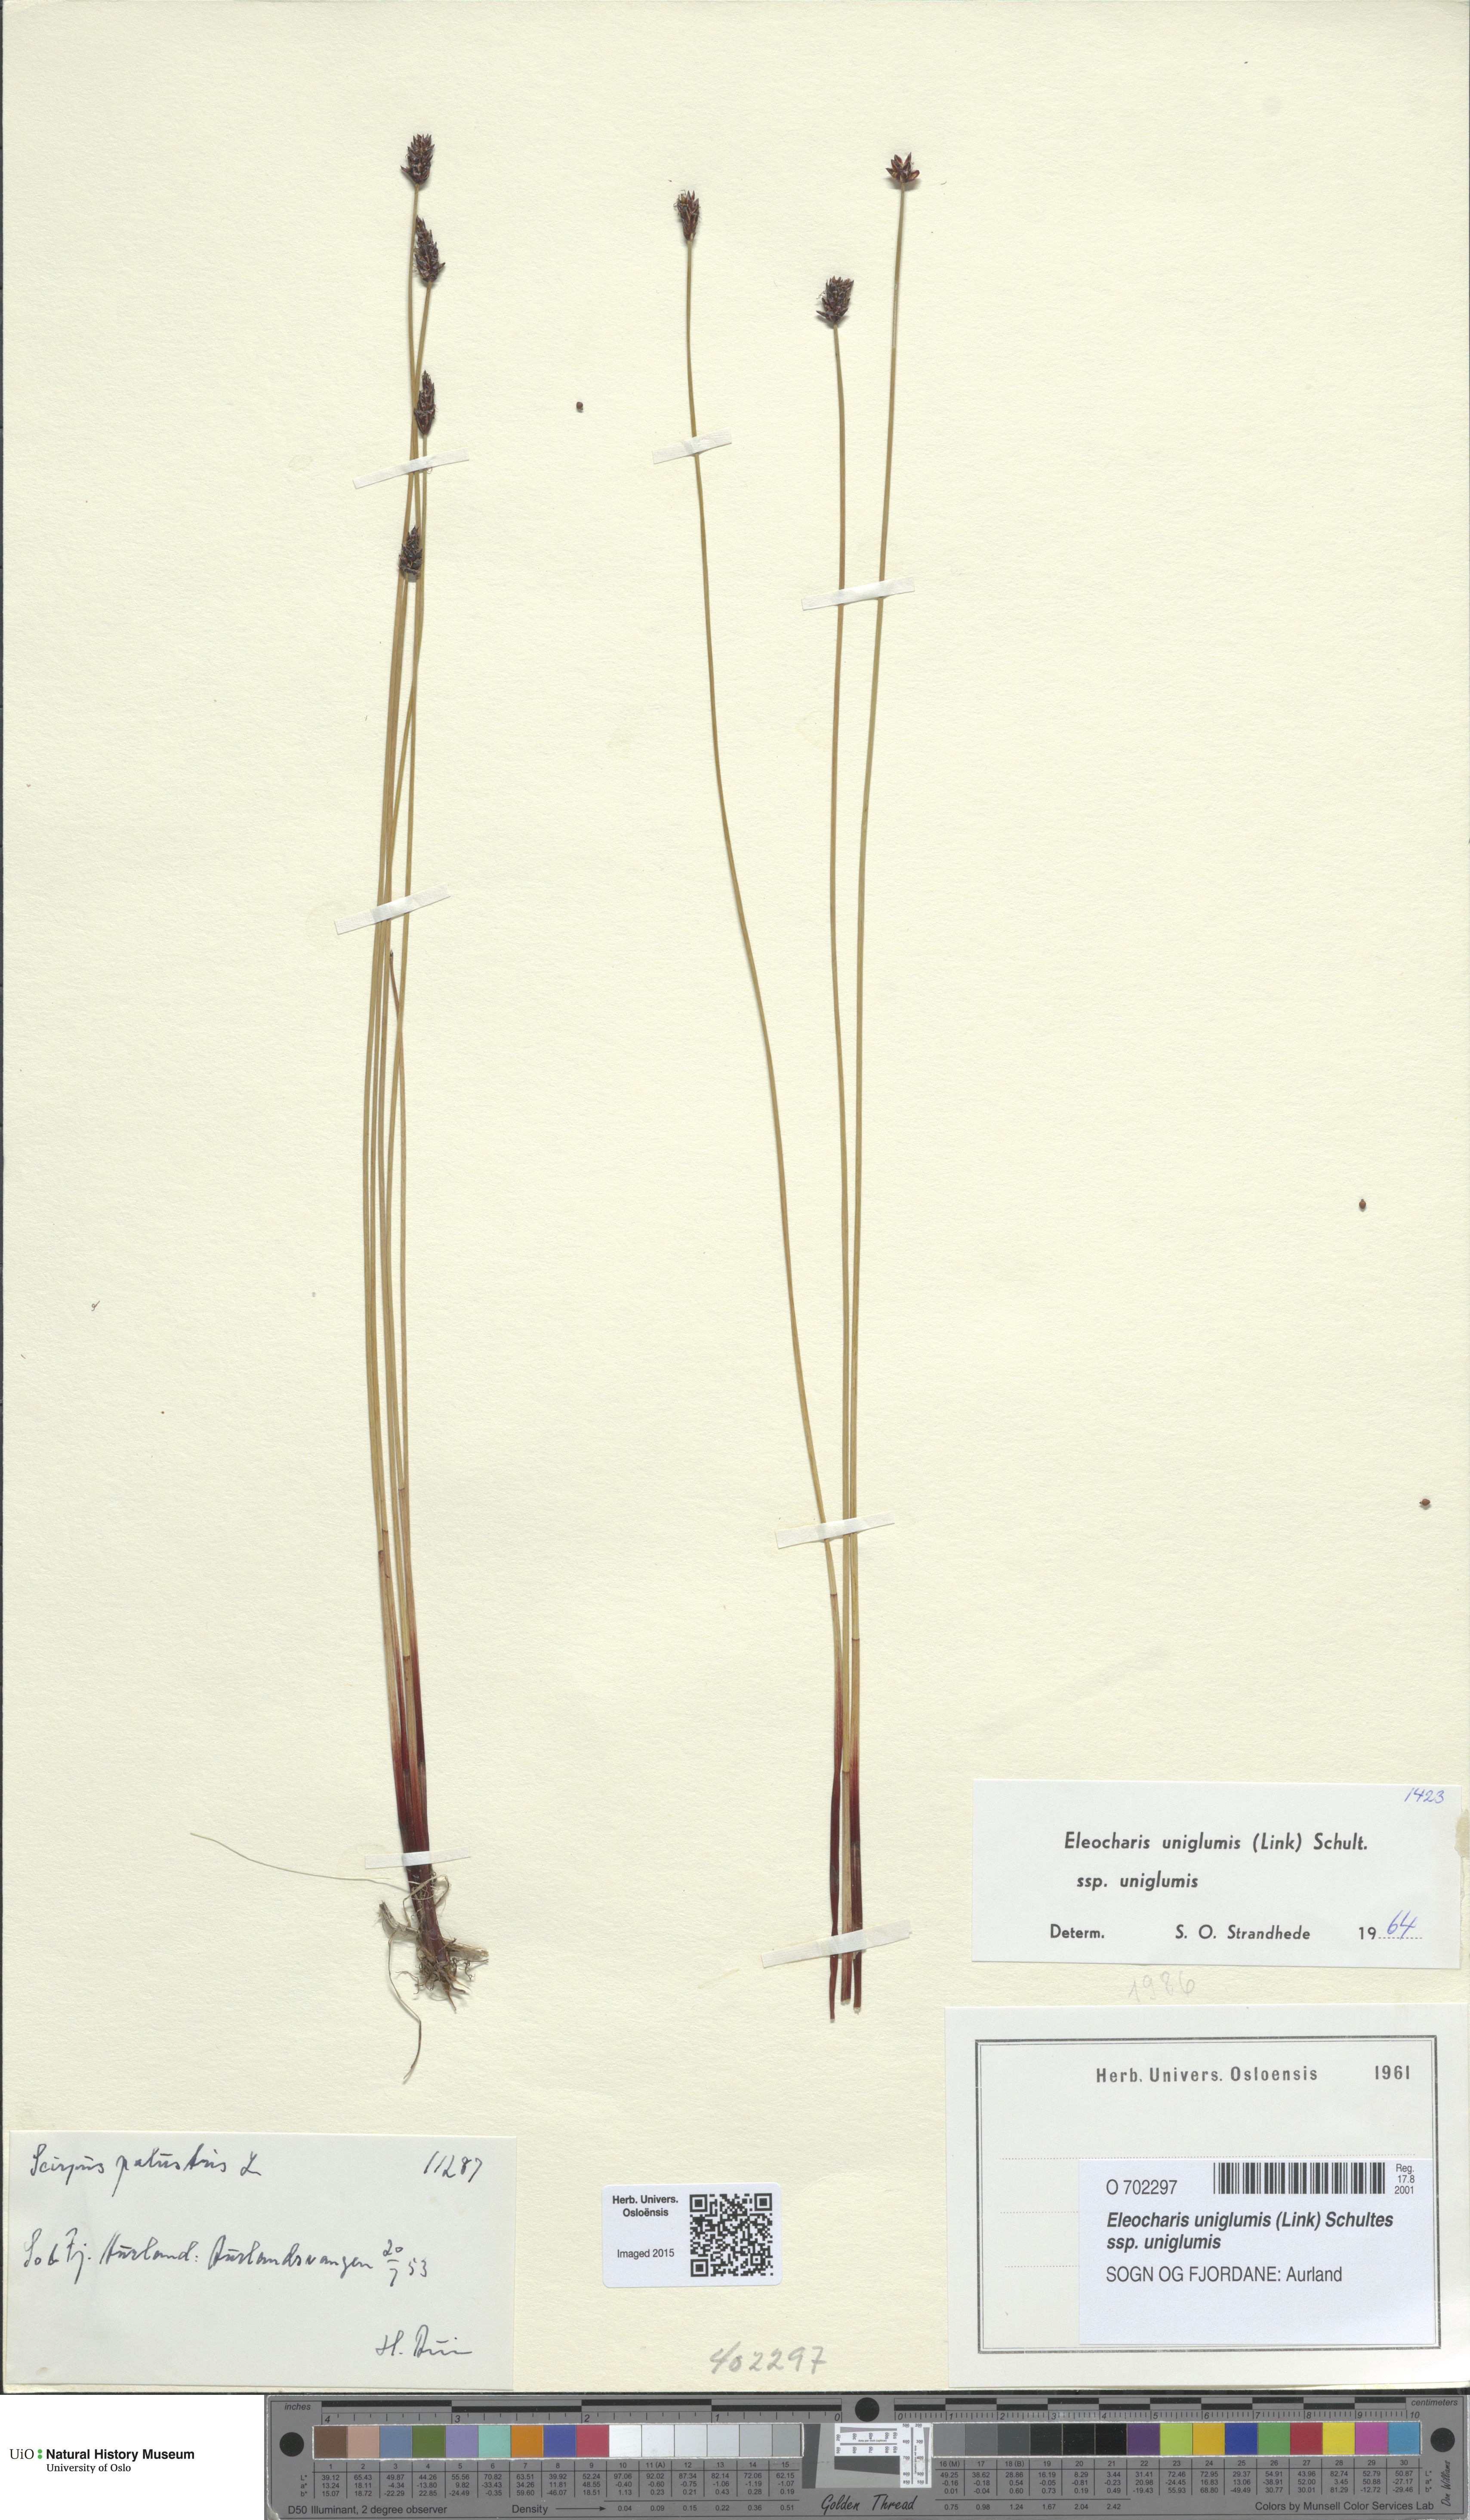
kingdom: Plantae
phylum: Tracheophyta
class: Liliopsida
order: Poales
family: Cyperaceae
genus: Eleocharis
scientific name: Eleocharis uniglumis
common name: Slender spike-rush
